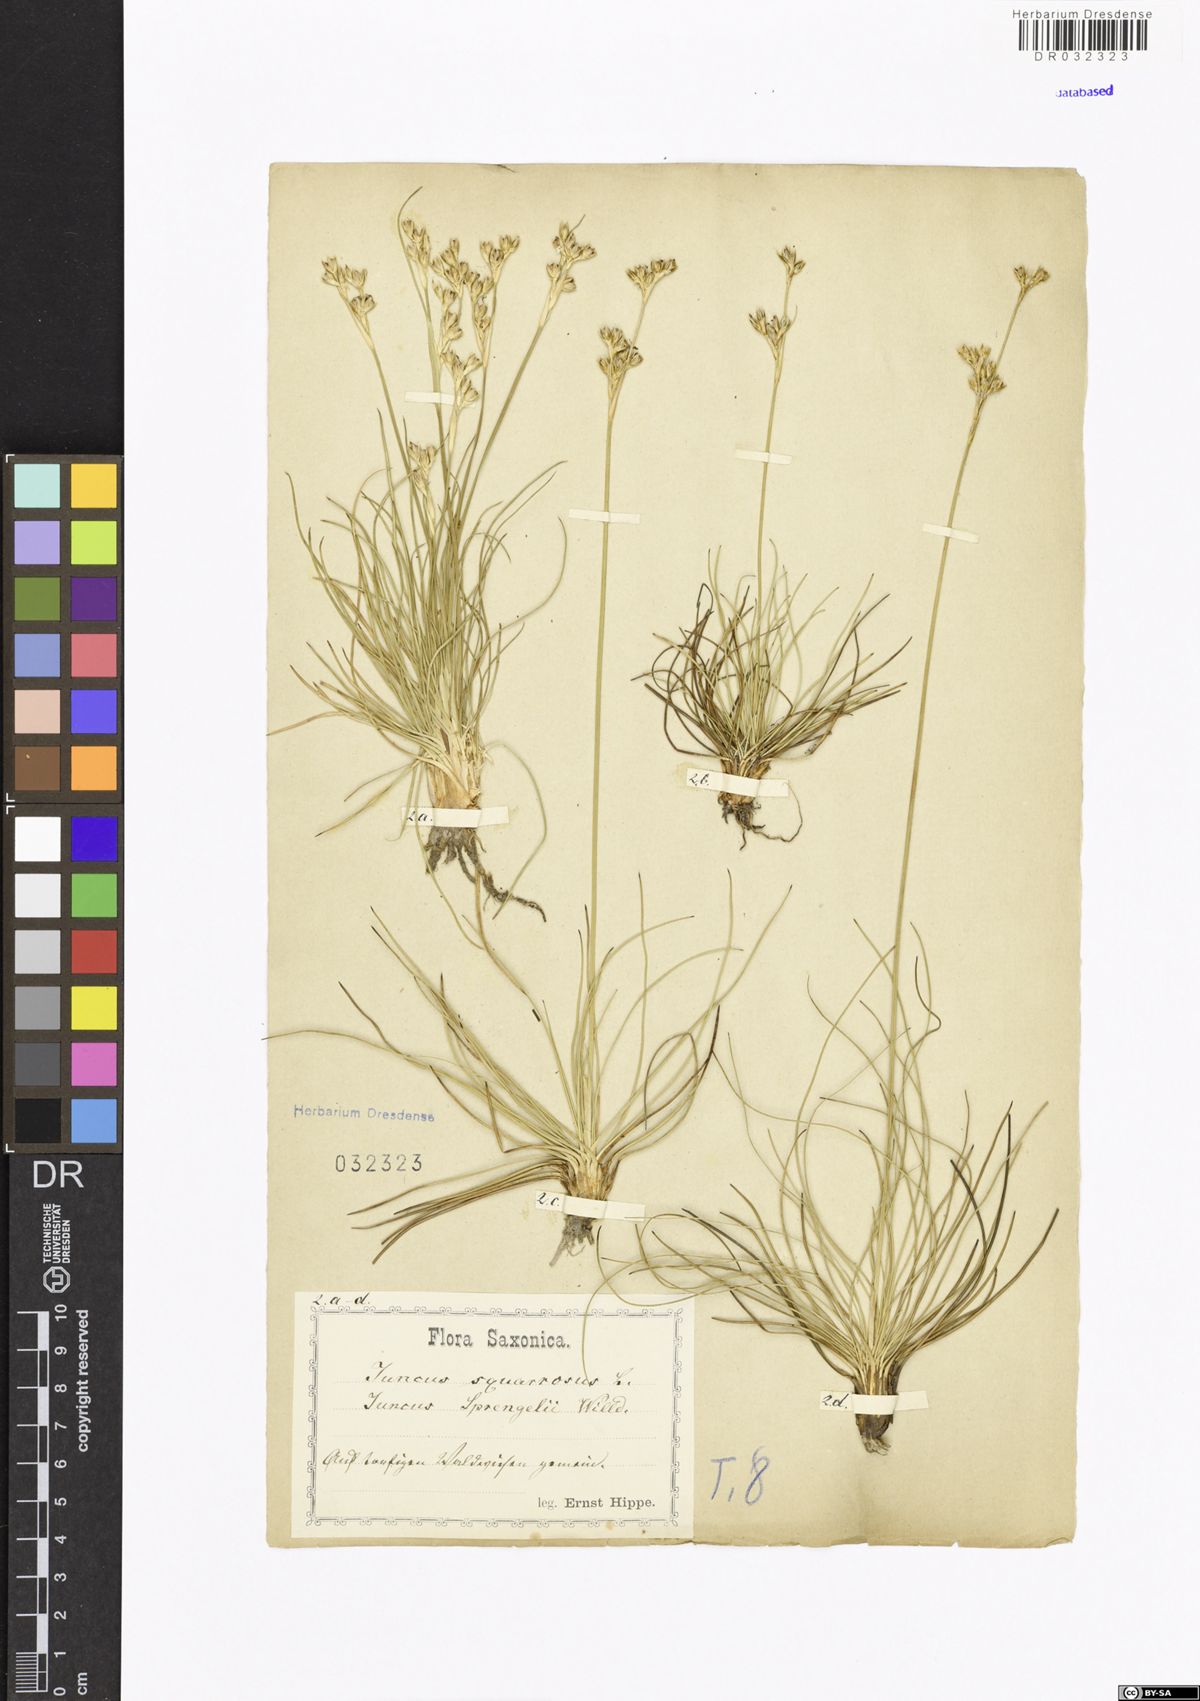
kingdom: Plantae
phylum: Tracheophyta
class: Liliopsida
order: Poales
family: Juncaceae
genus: Juncus
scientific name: Juncus squarrosus
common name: Heath rush
